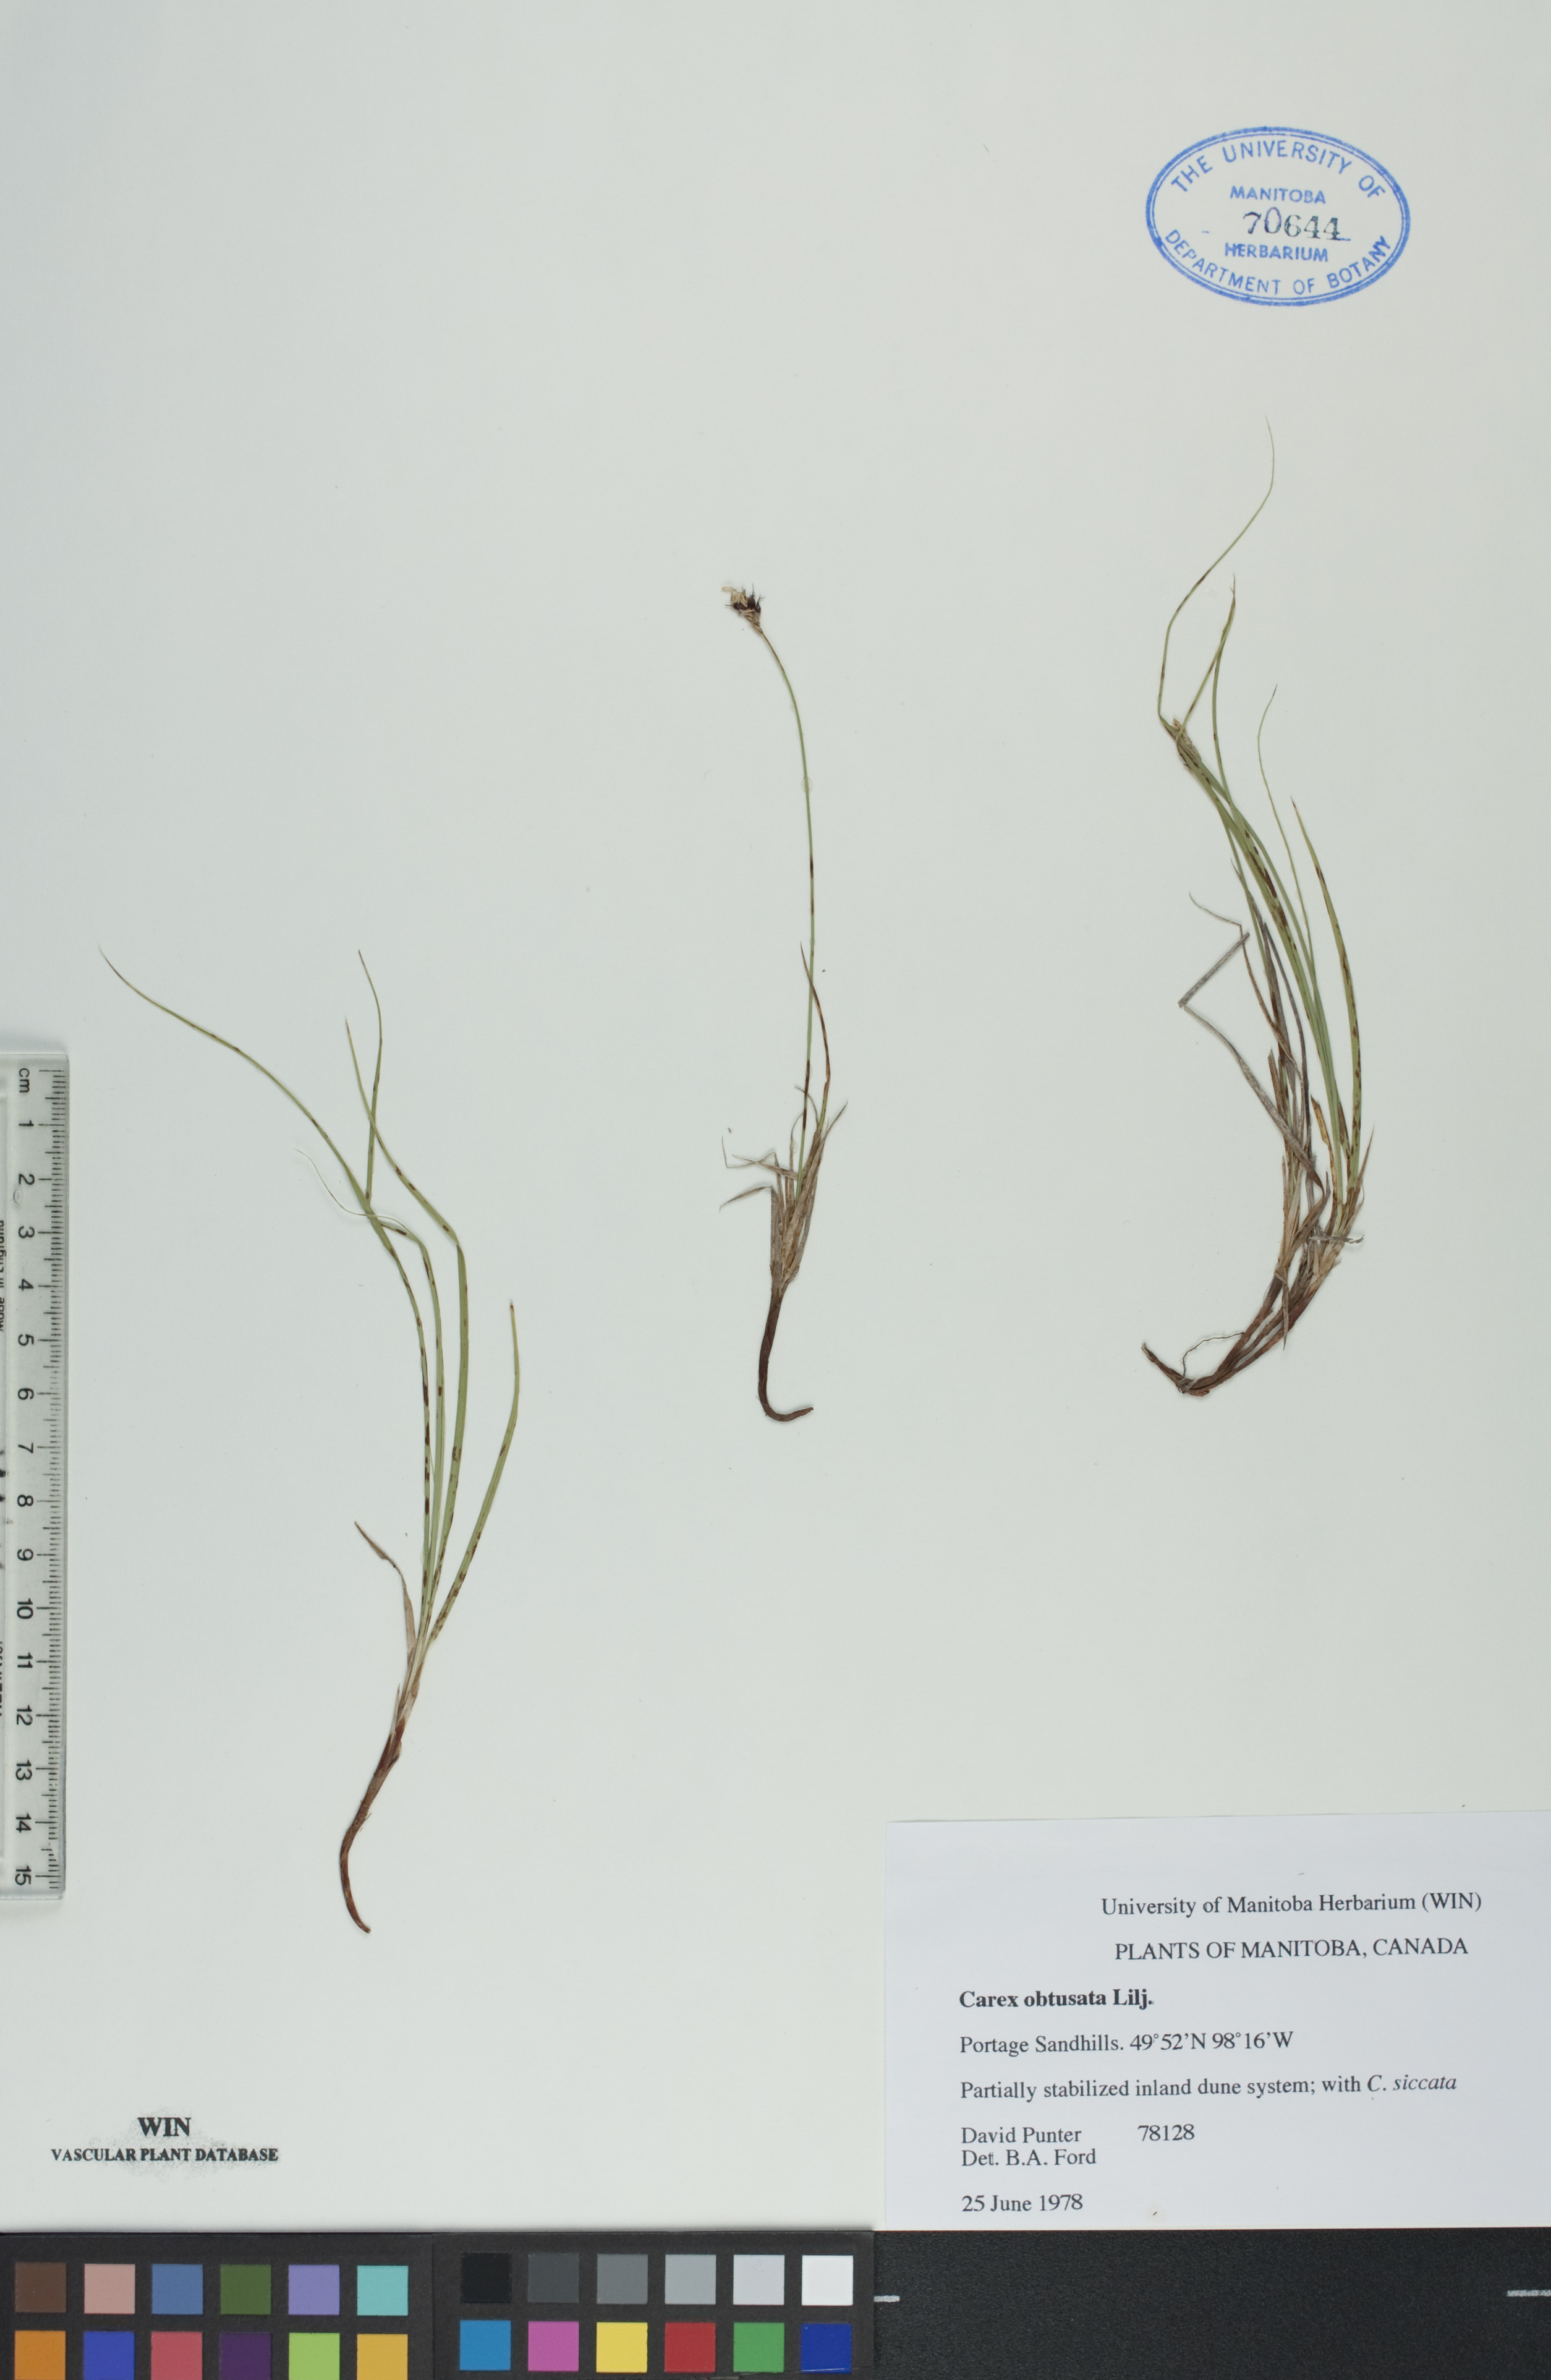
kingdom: Plantae
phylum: Tracheophyta
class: Liliopsida
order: Poales
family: Cyperaceae
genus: Carex
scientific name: Carex obtusata
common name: Blunt sedge
